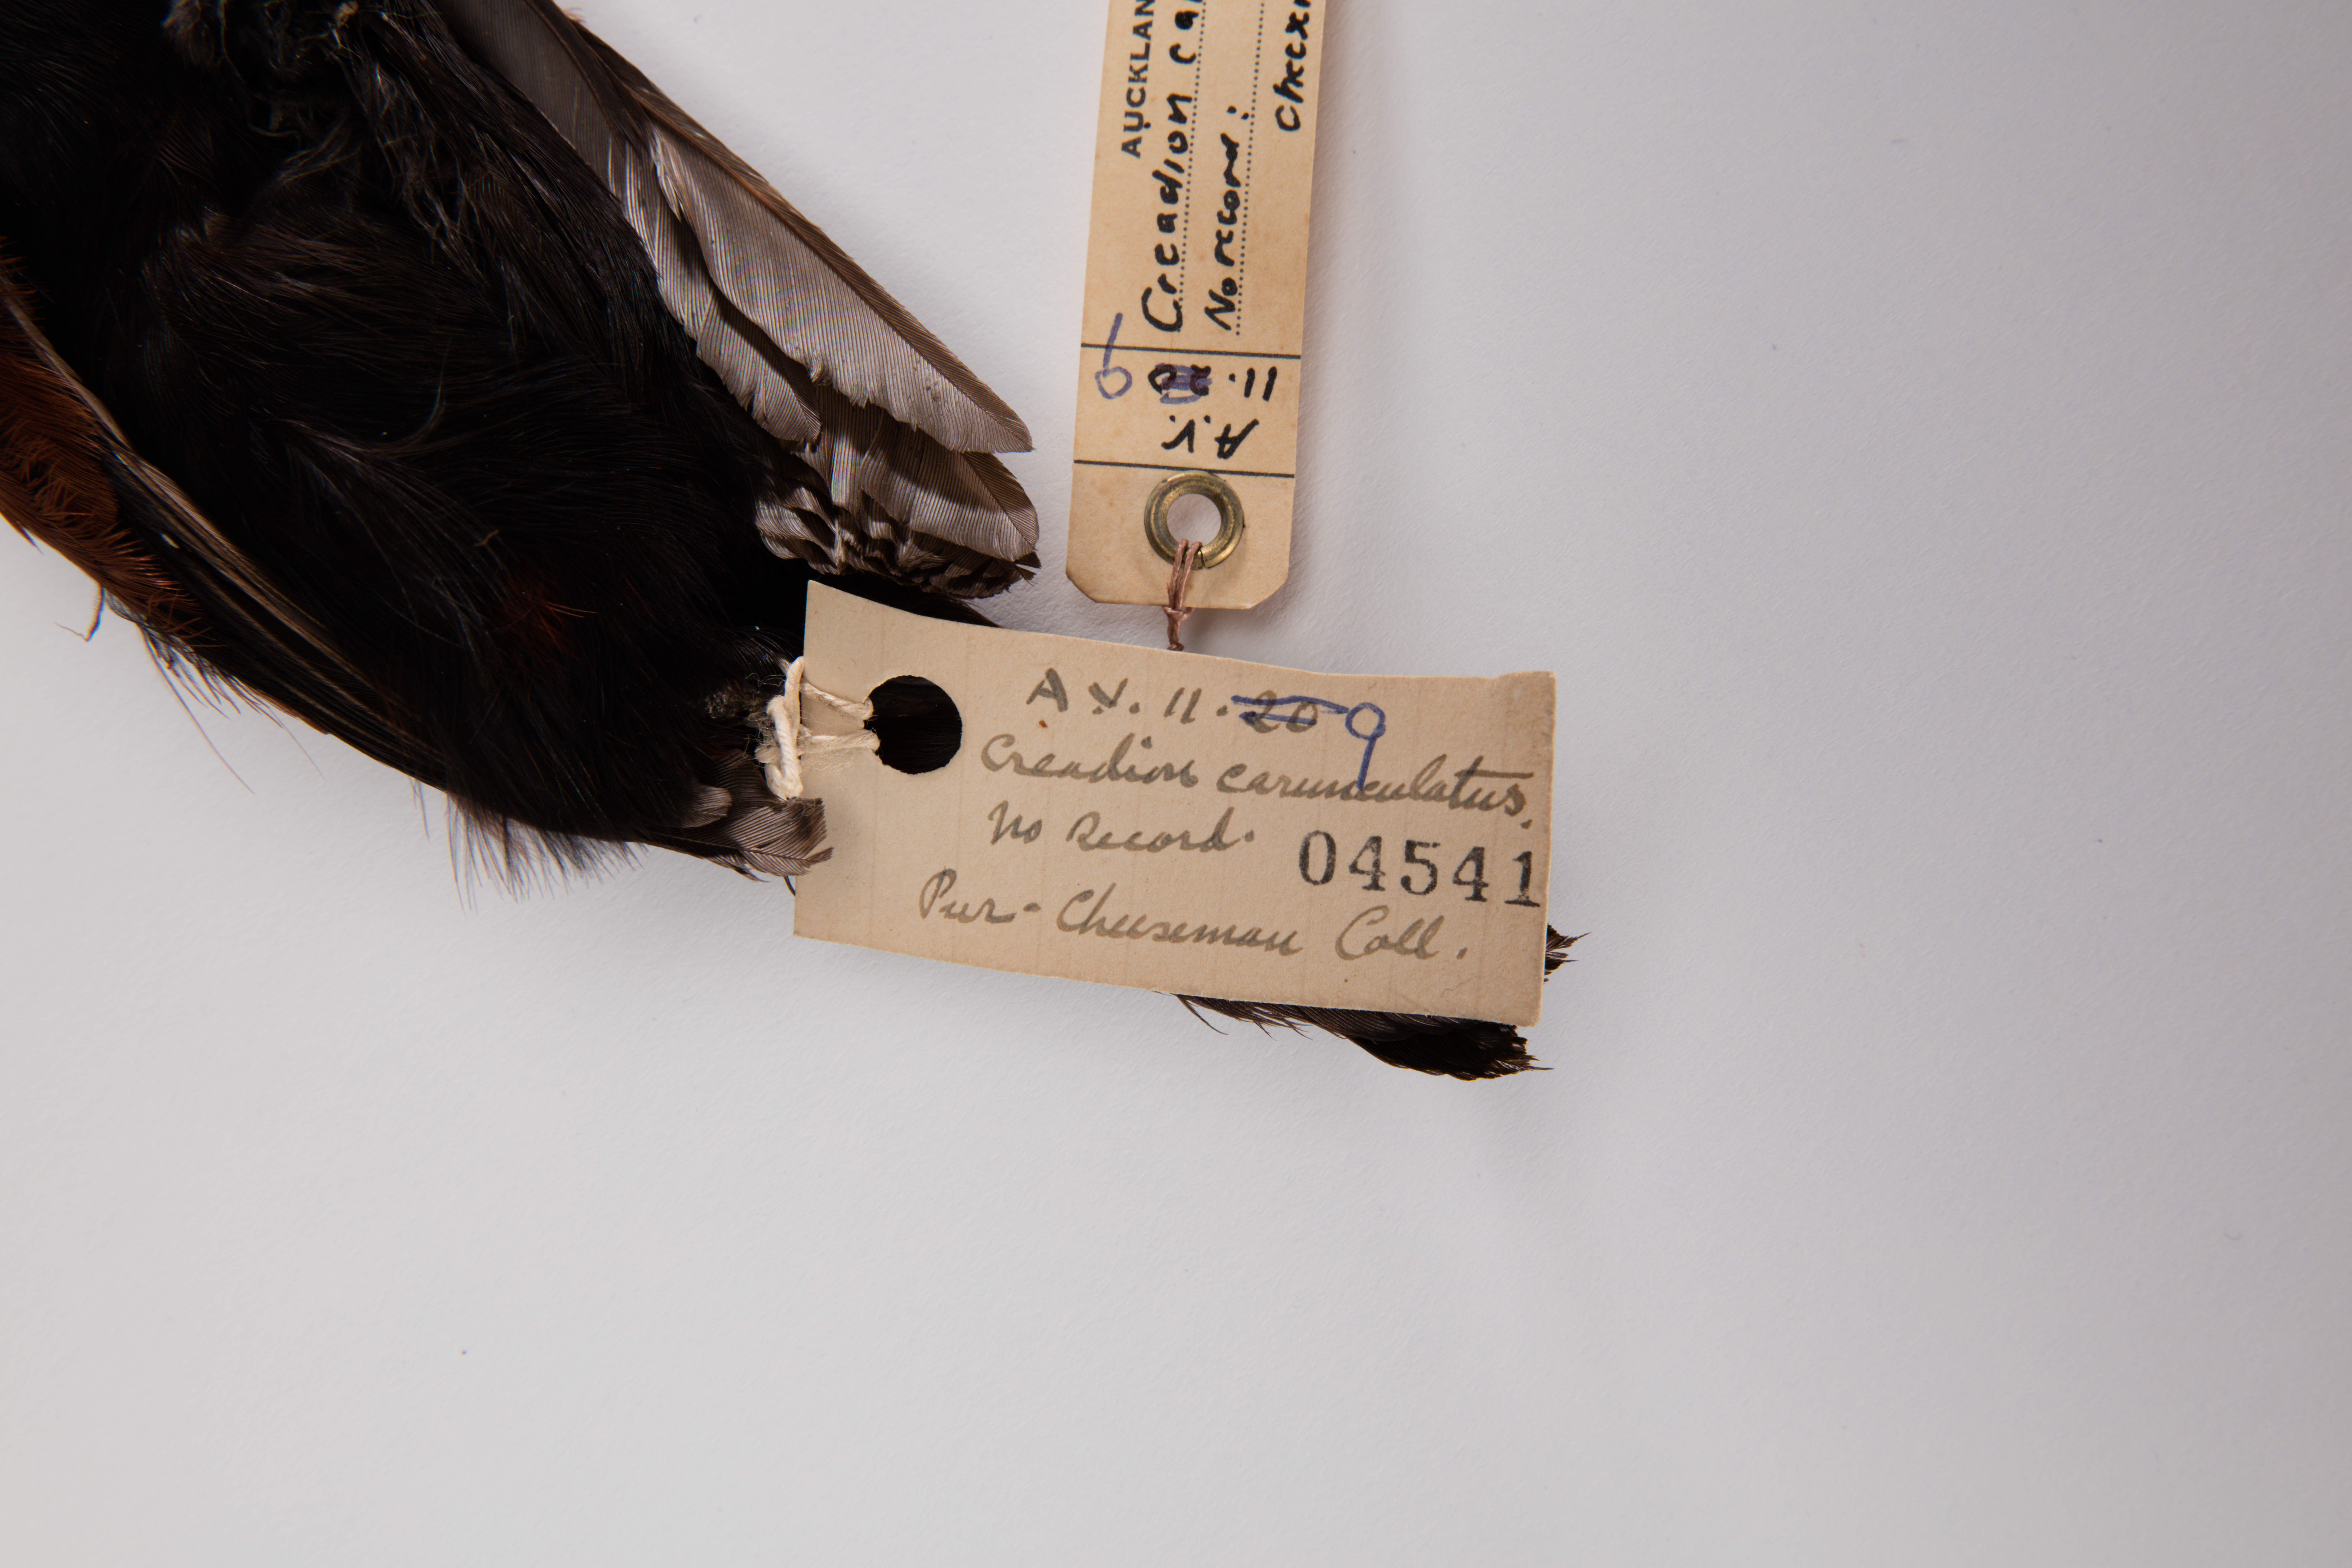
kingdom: Animalia
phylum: Chordata
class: Aves
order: Passeriformes
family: Callaeatidae
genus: Philesturnus
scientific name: Philesturnus carunculatus
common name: South island saddleback
